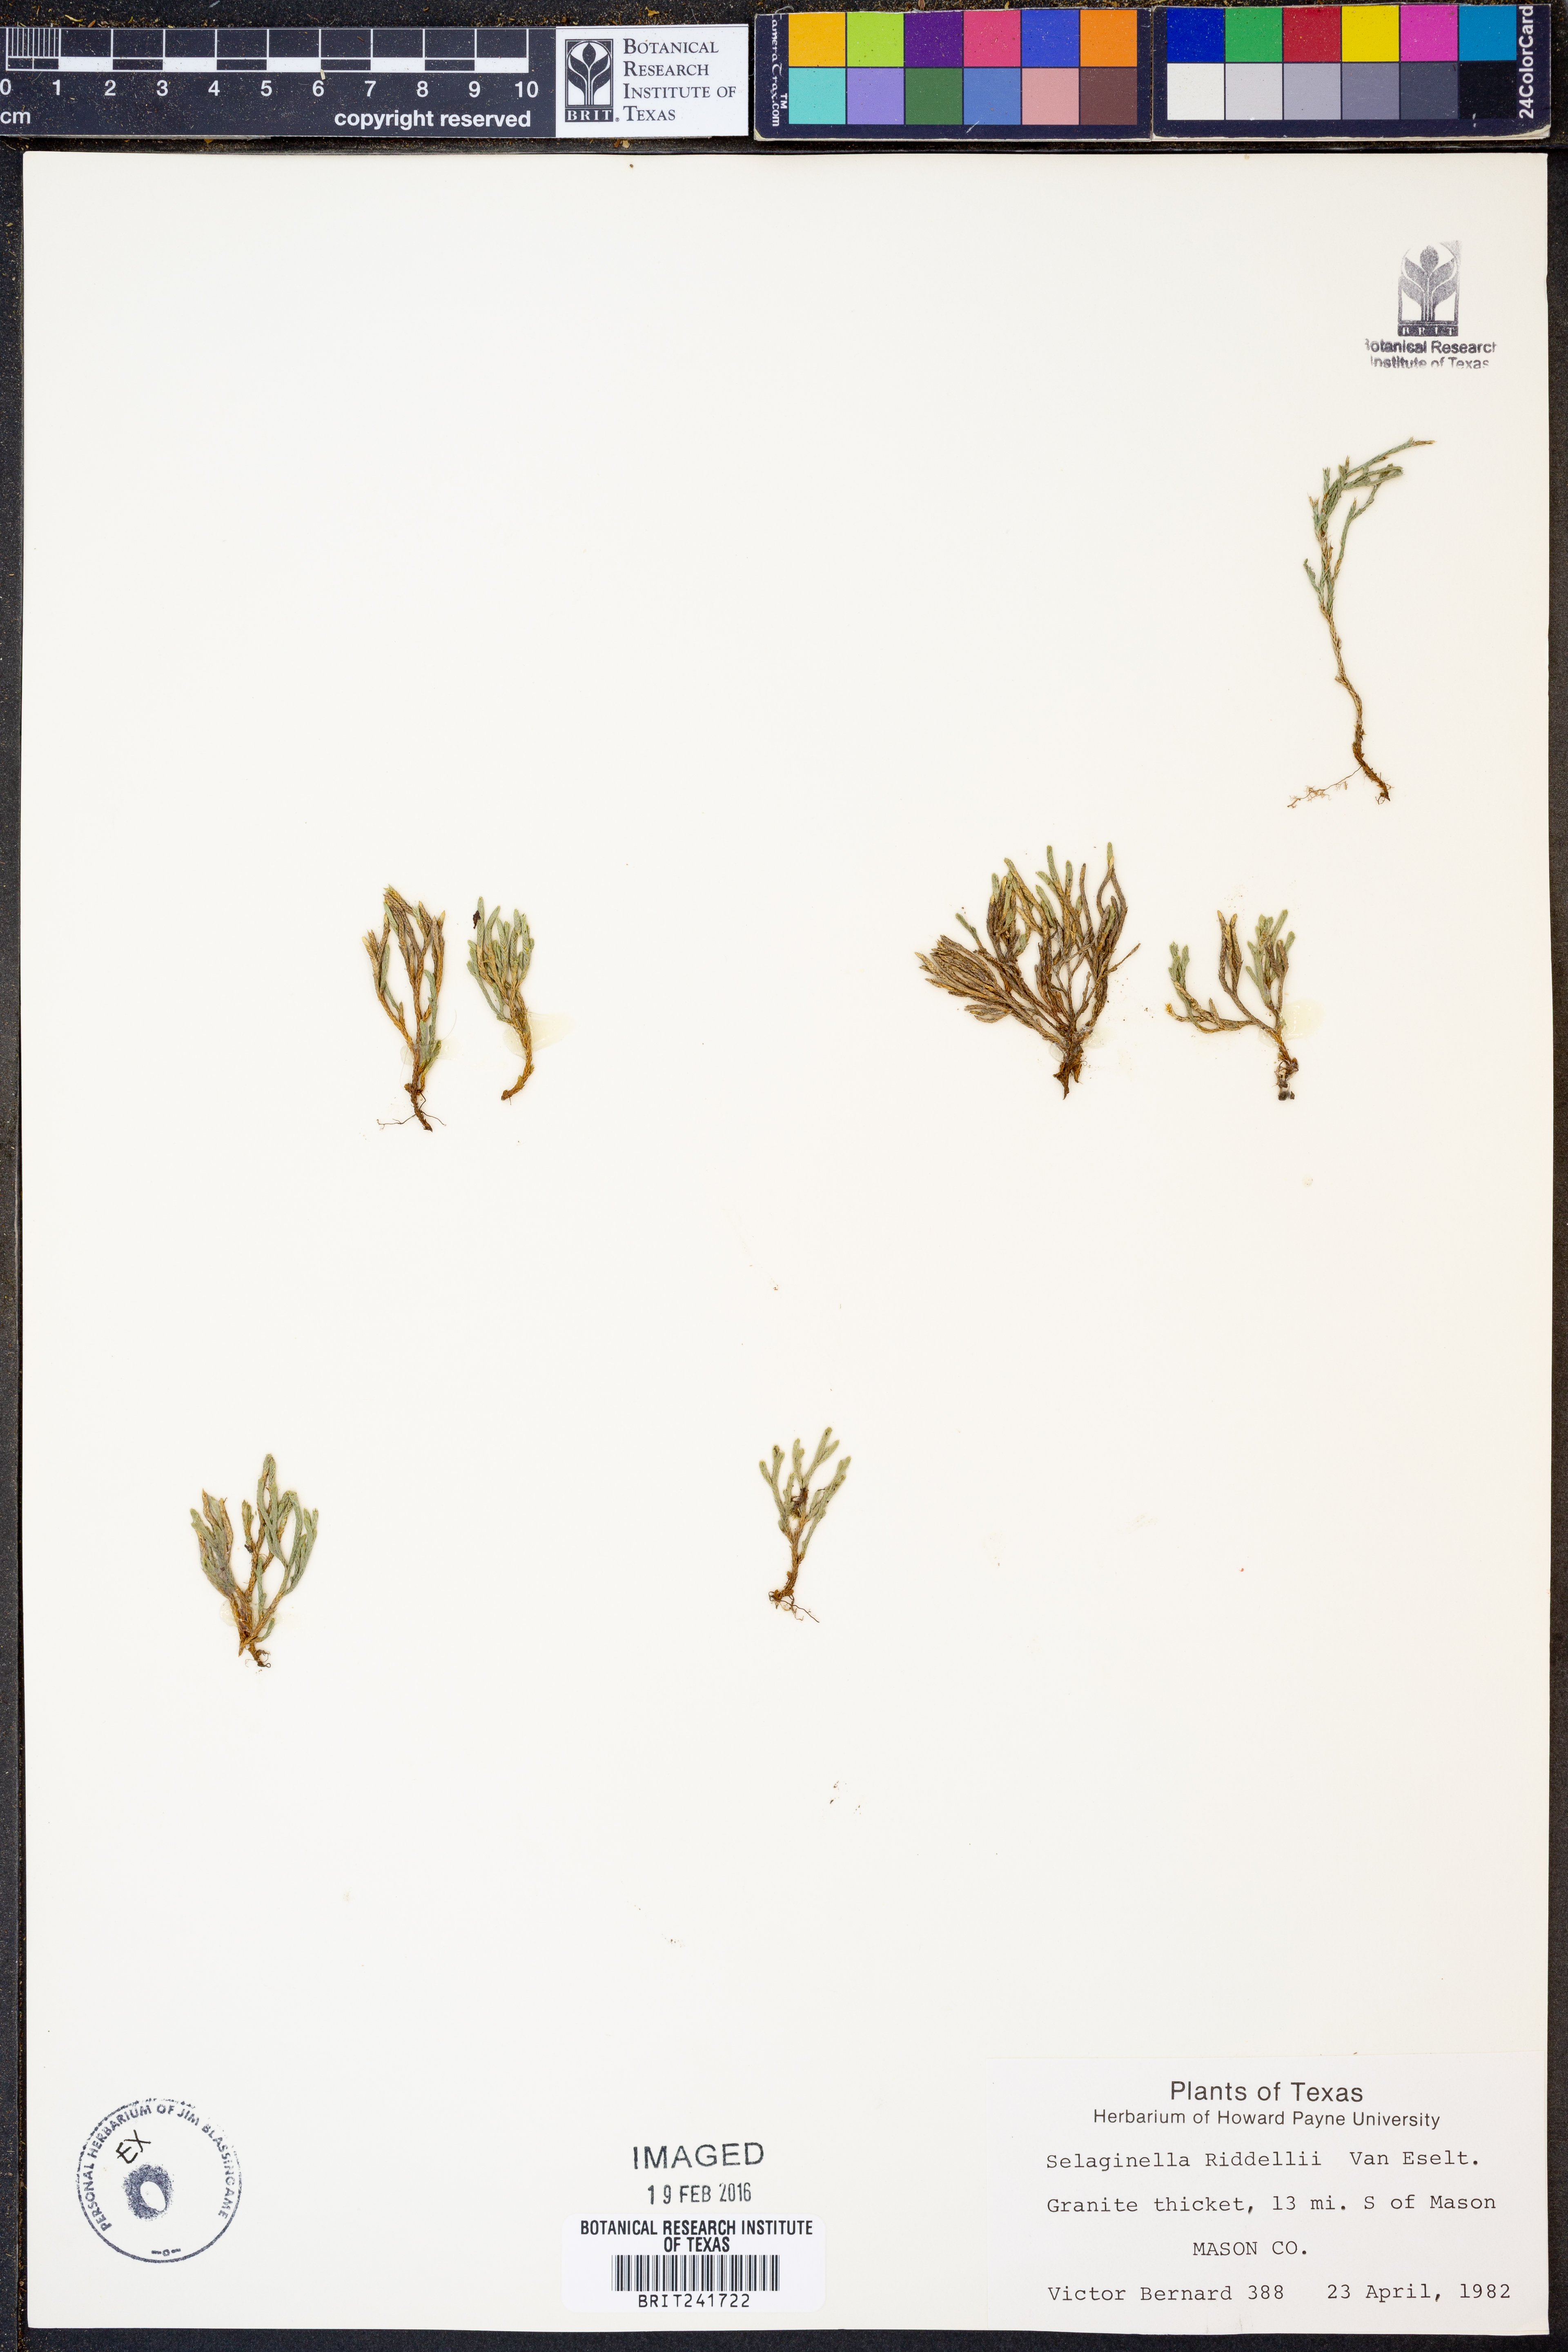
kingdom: Plantae
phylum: Tracheophyta
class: Lycopodiopsida
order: Selaginellales
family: Selaginellaceae
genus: Selaginella
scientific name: Selaginella corallina
